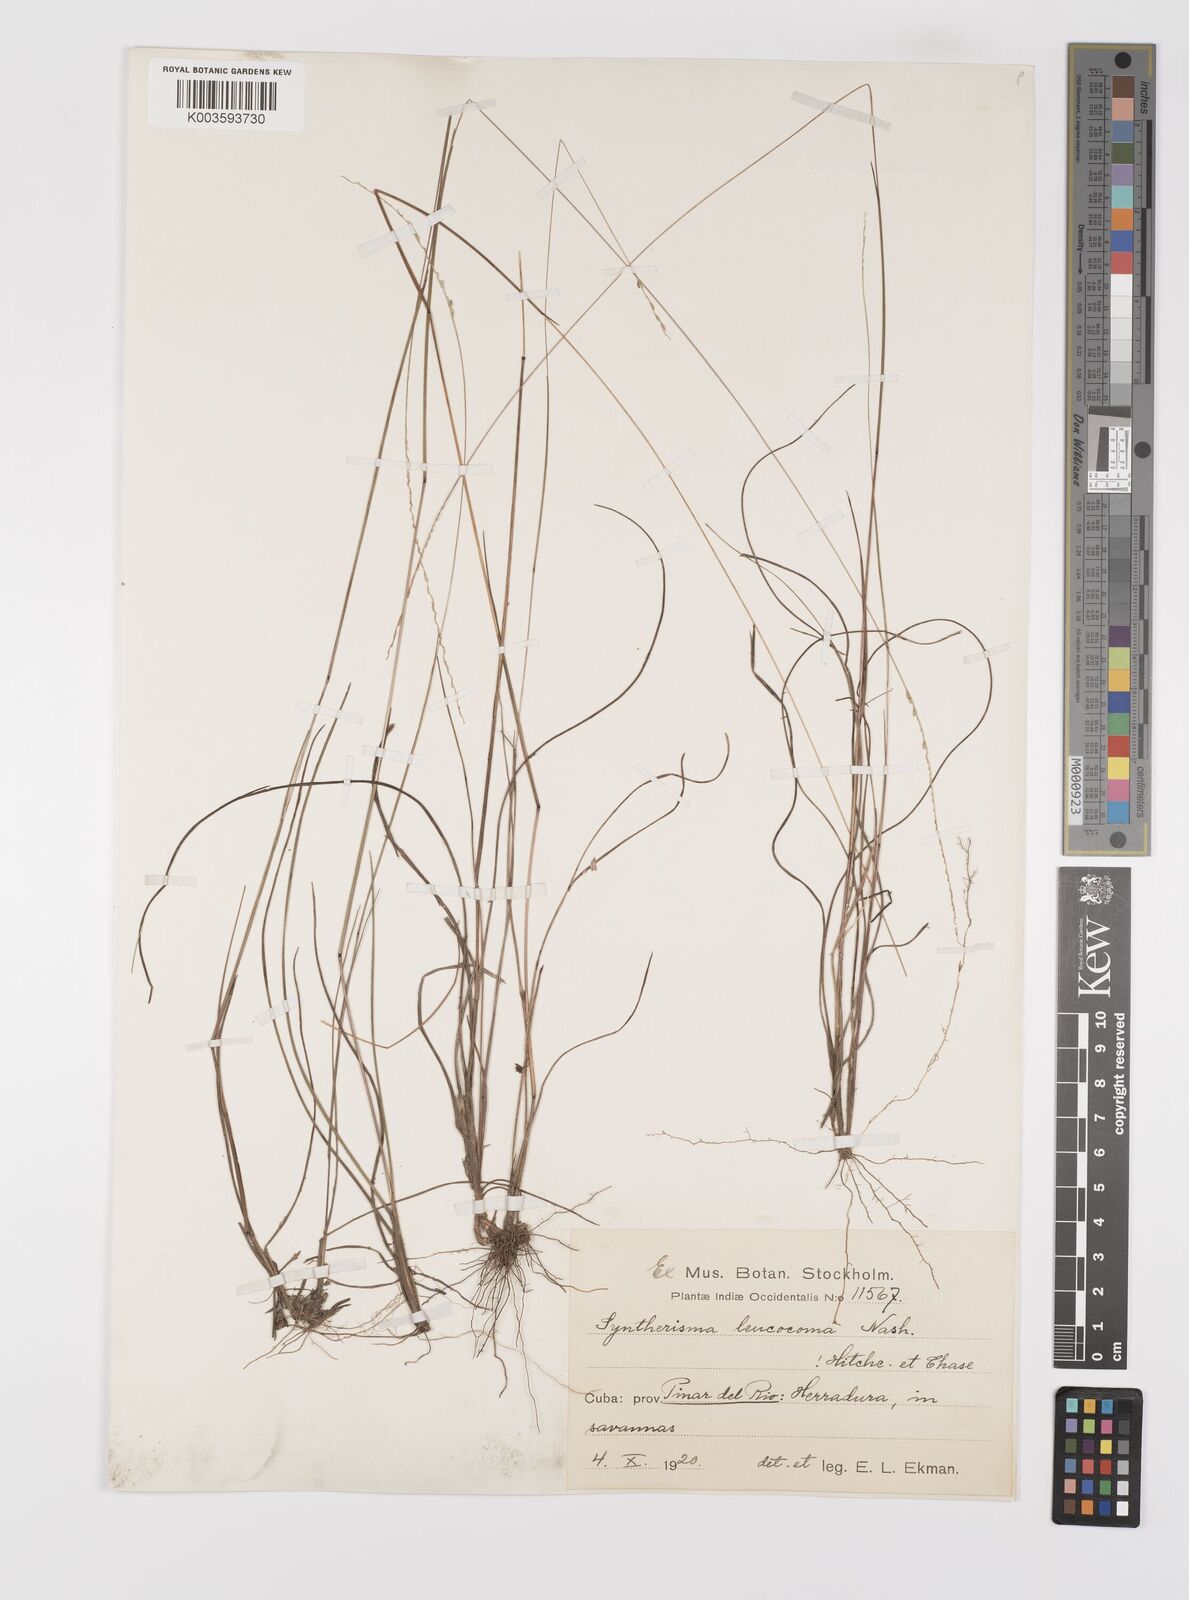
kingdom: Plantae
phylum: Tracheophyta
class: Liliopsida
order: Poales
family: Poaceae
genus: Digitaria
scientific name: Digitaria villosa
